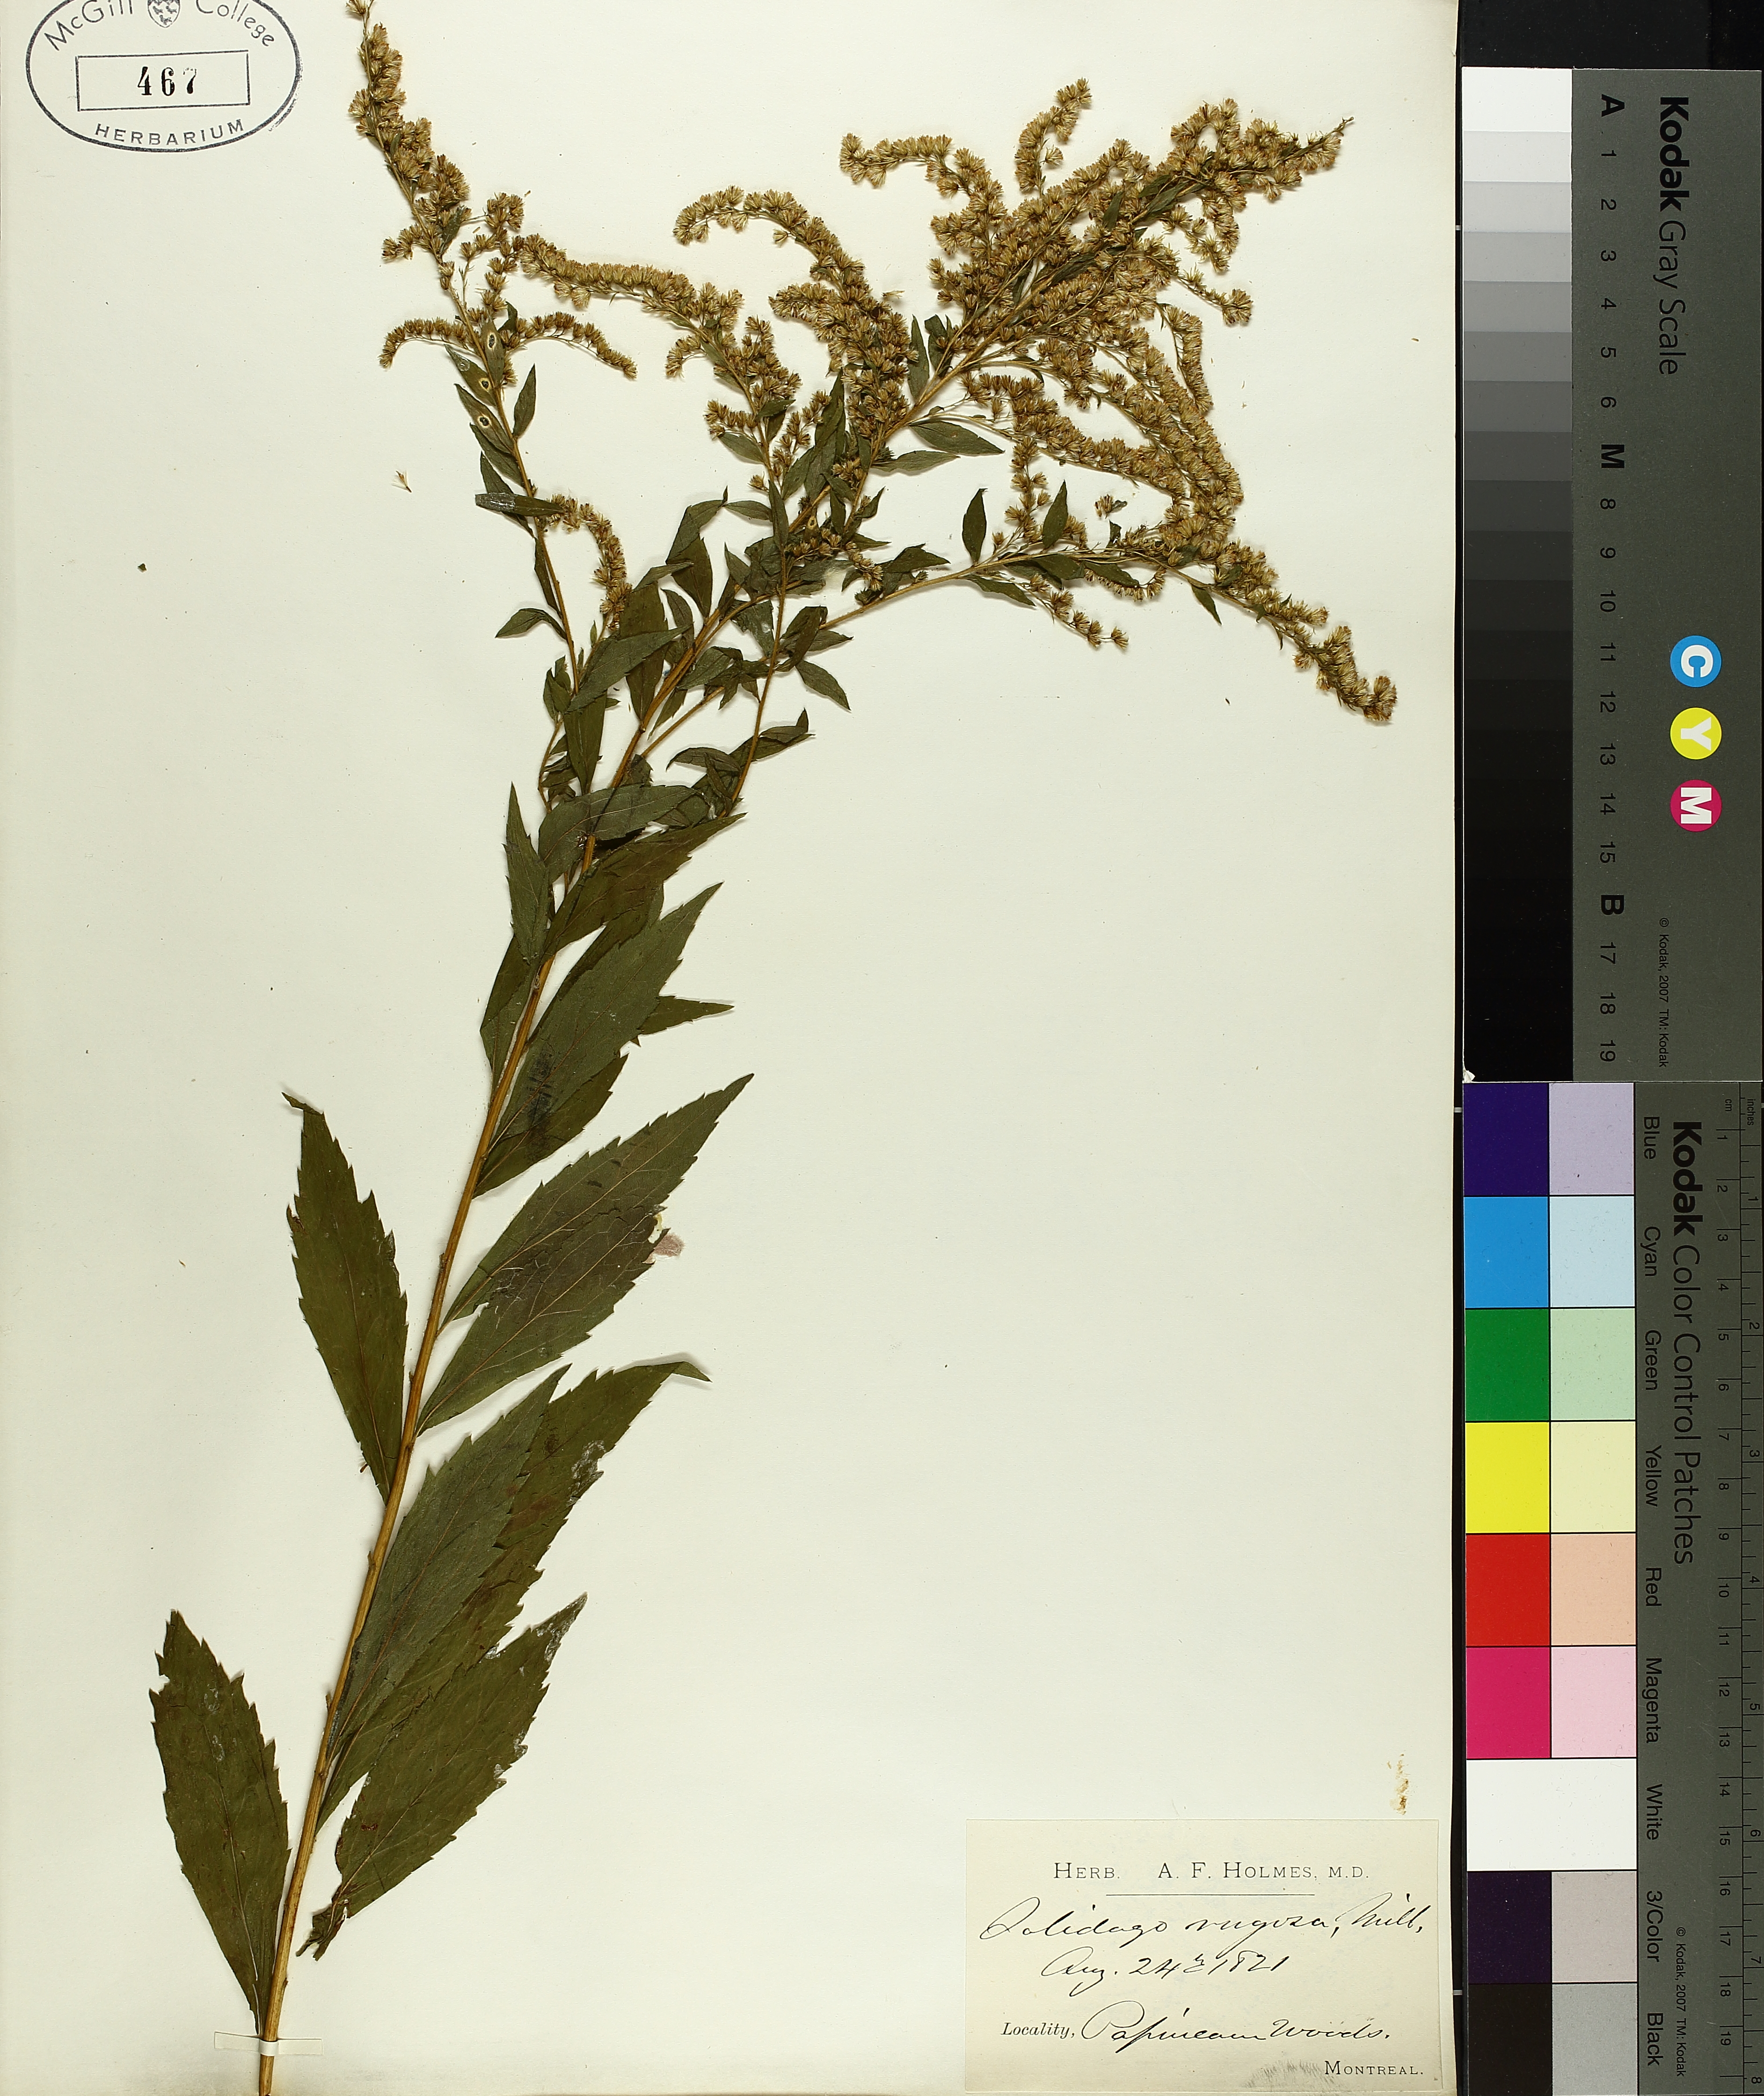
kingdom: Plantae
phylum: Tracheophyta
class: Magnoliopsida
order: Asterales
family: Asteraceae
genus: Solidago
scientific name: Solidago rugosa
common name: Rough-stemmed goldenrod
